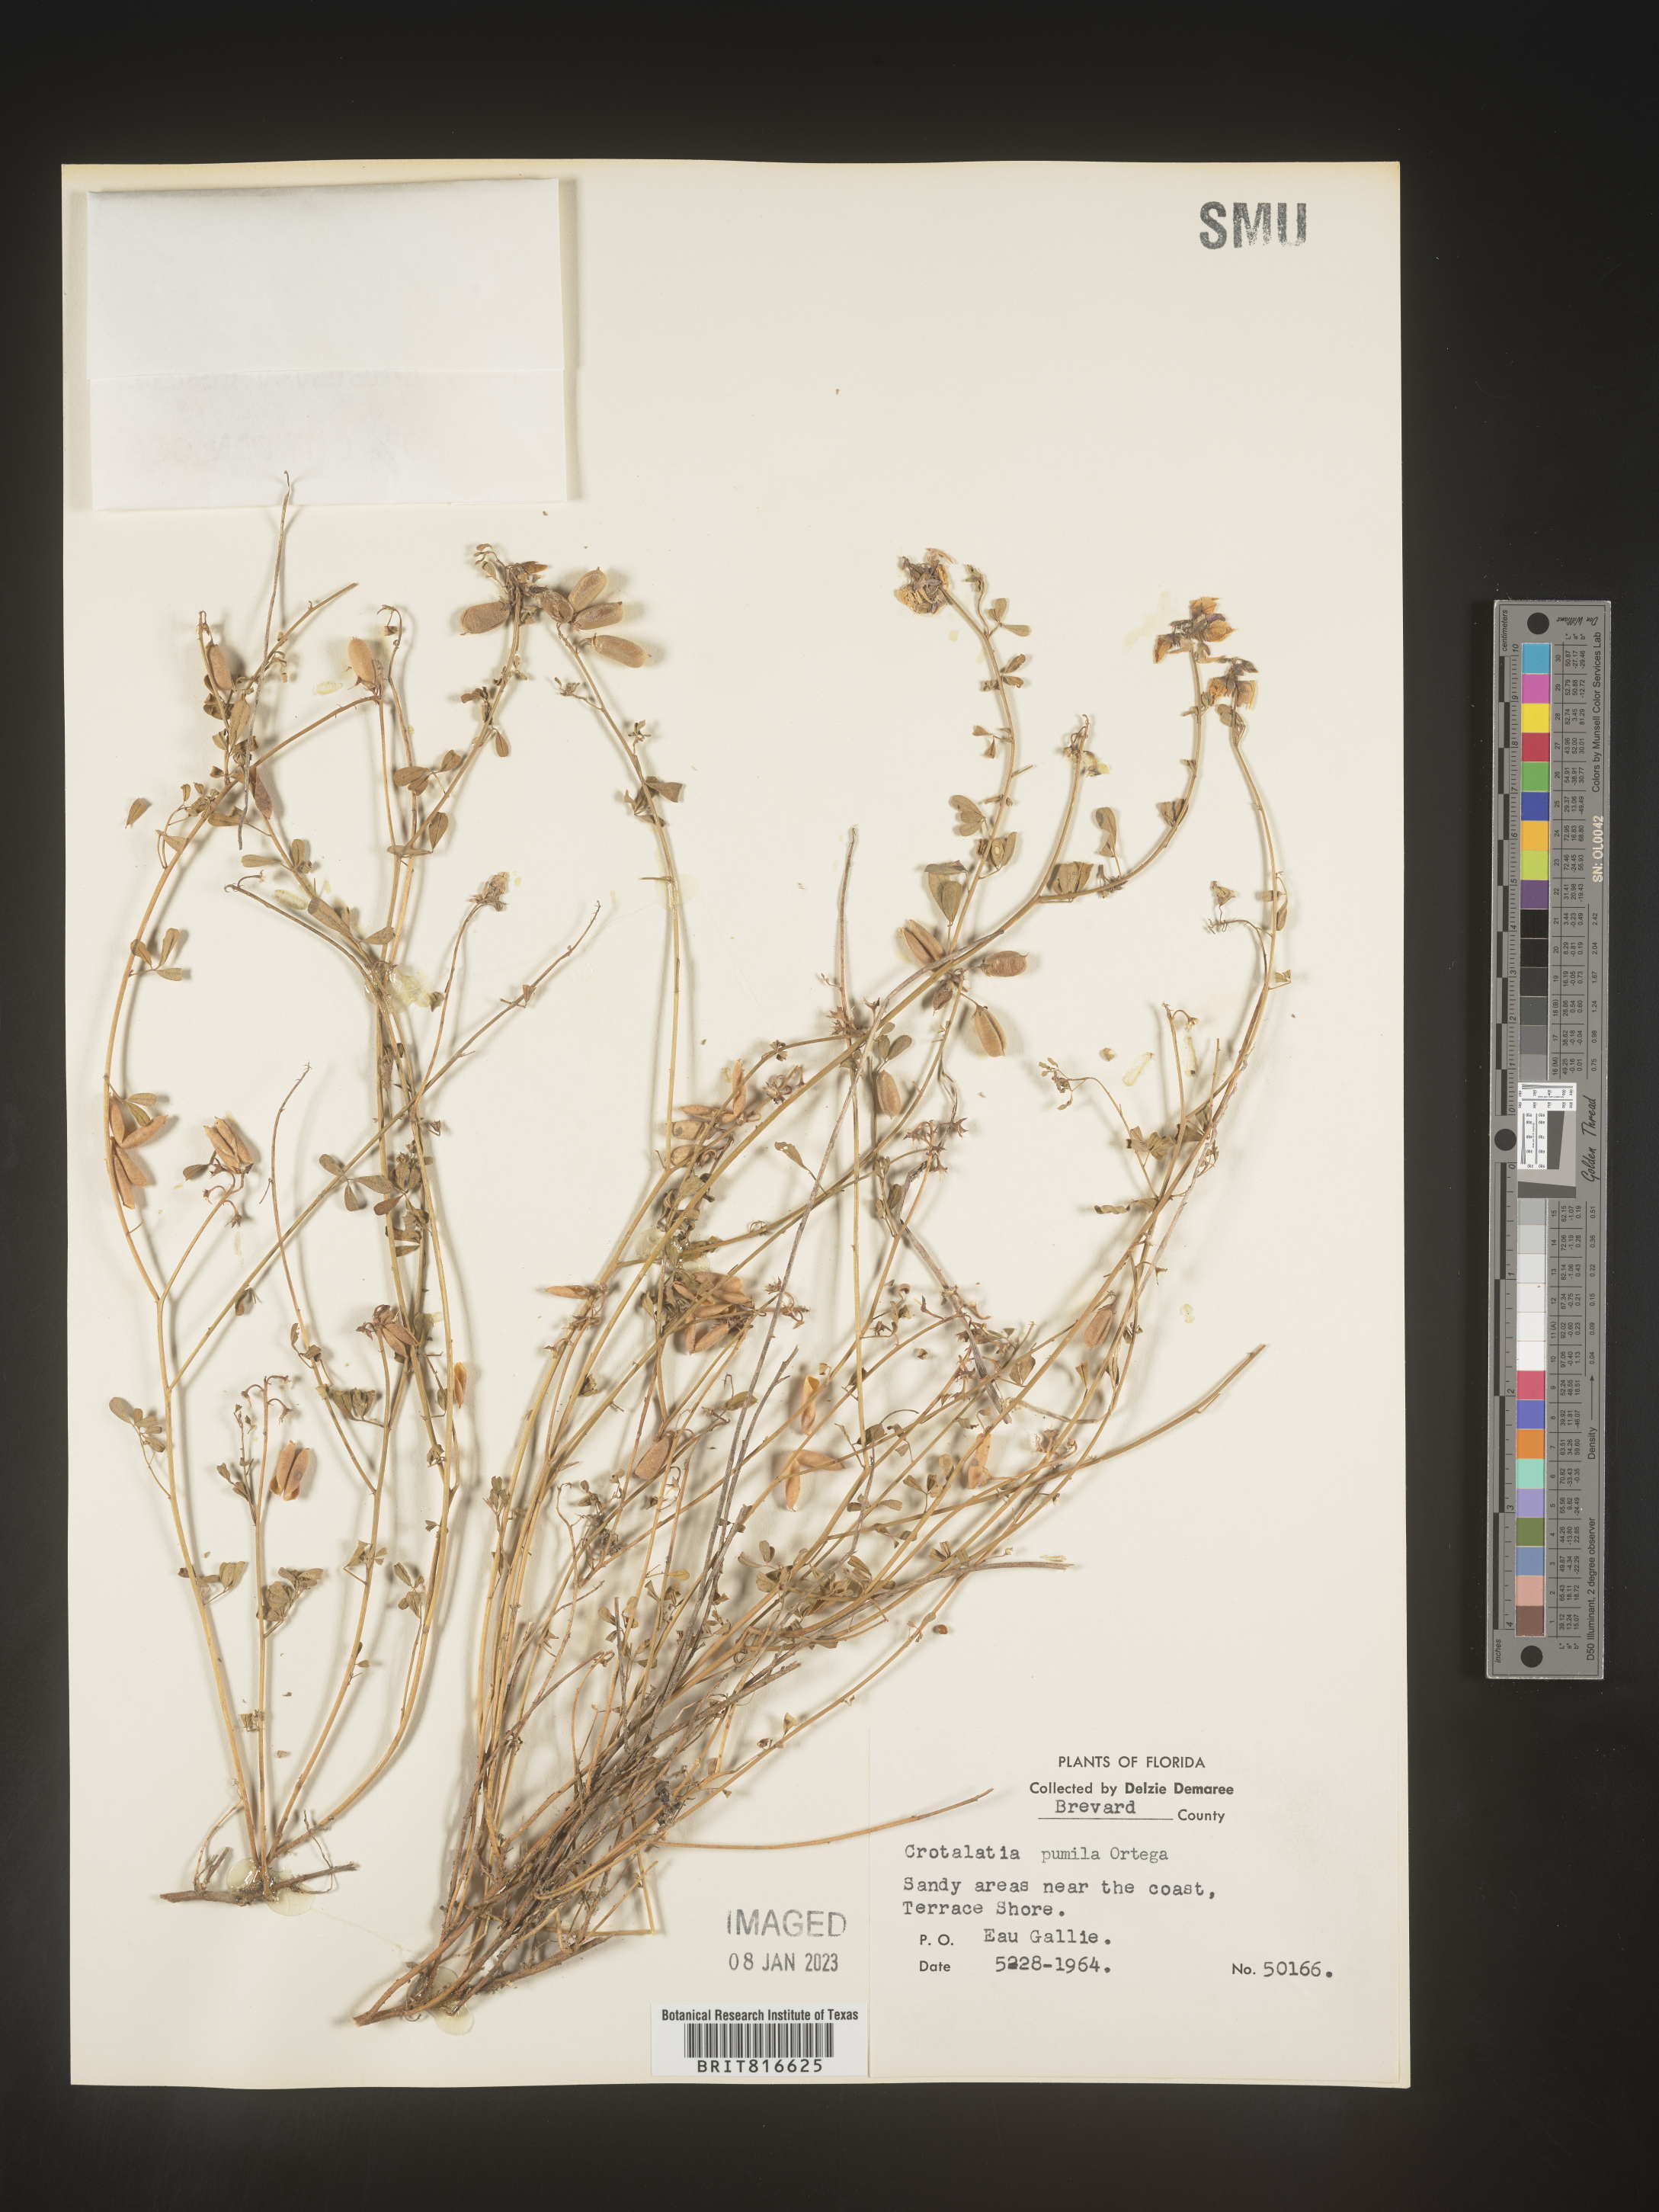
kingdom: Plantae
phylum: Tracheophyta
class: Magnoliopsida
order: Fabales
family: Fabaceae
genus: Crotalaria
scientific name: Crotalaria pumila
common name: Low rattlebox
